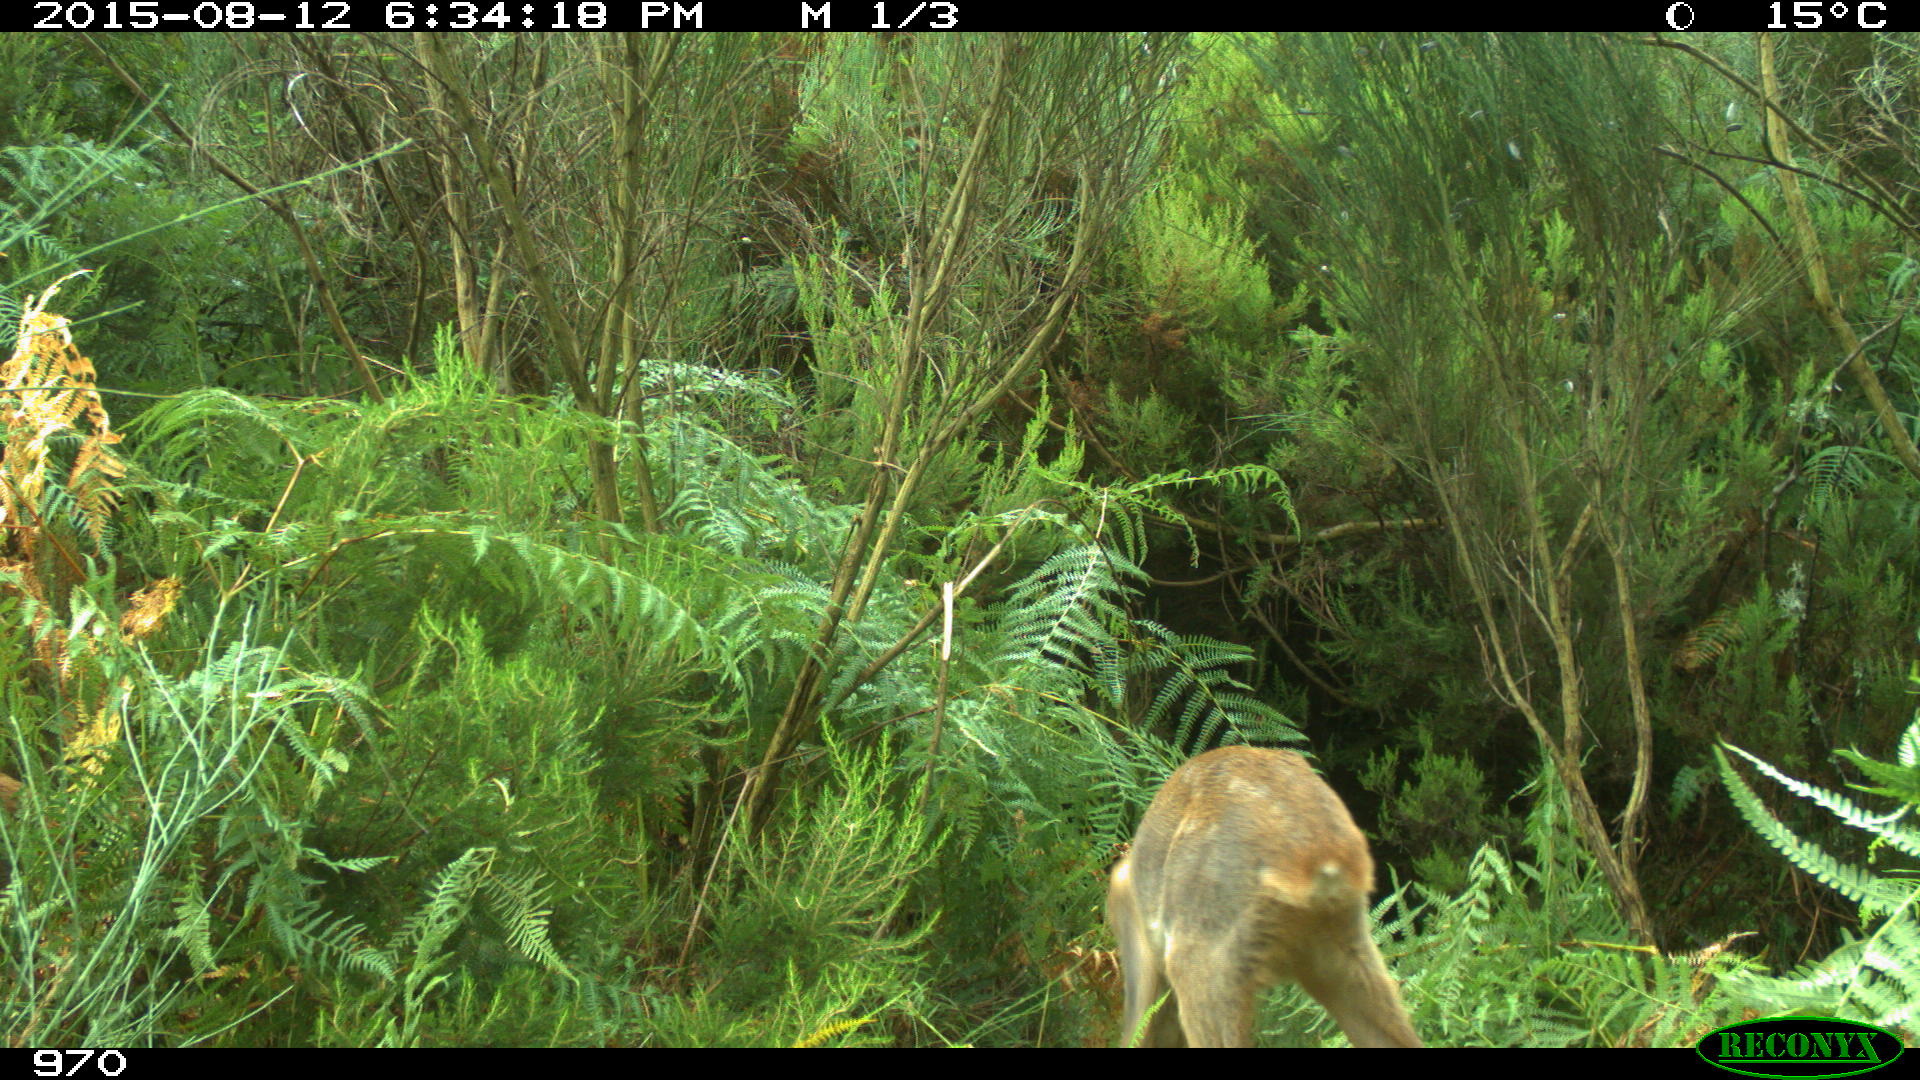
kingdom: Animalia
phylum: Chordata
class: Mammalia
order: Artiodactyla
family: Cervidae
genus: Capreolus
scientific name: Capreolus capreolus
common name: Western roe deer
